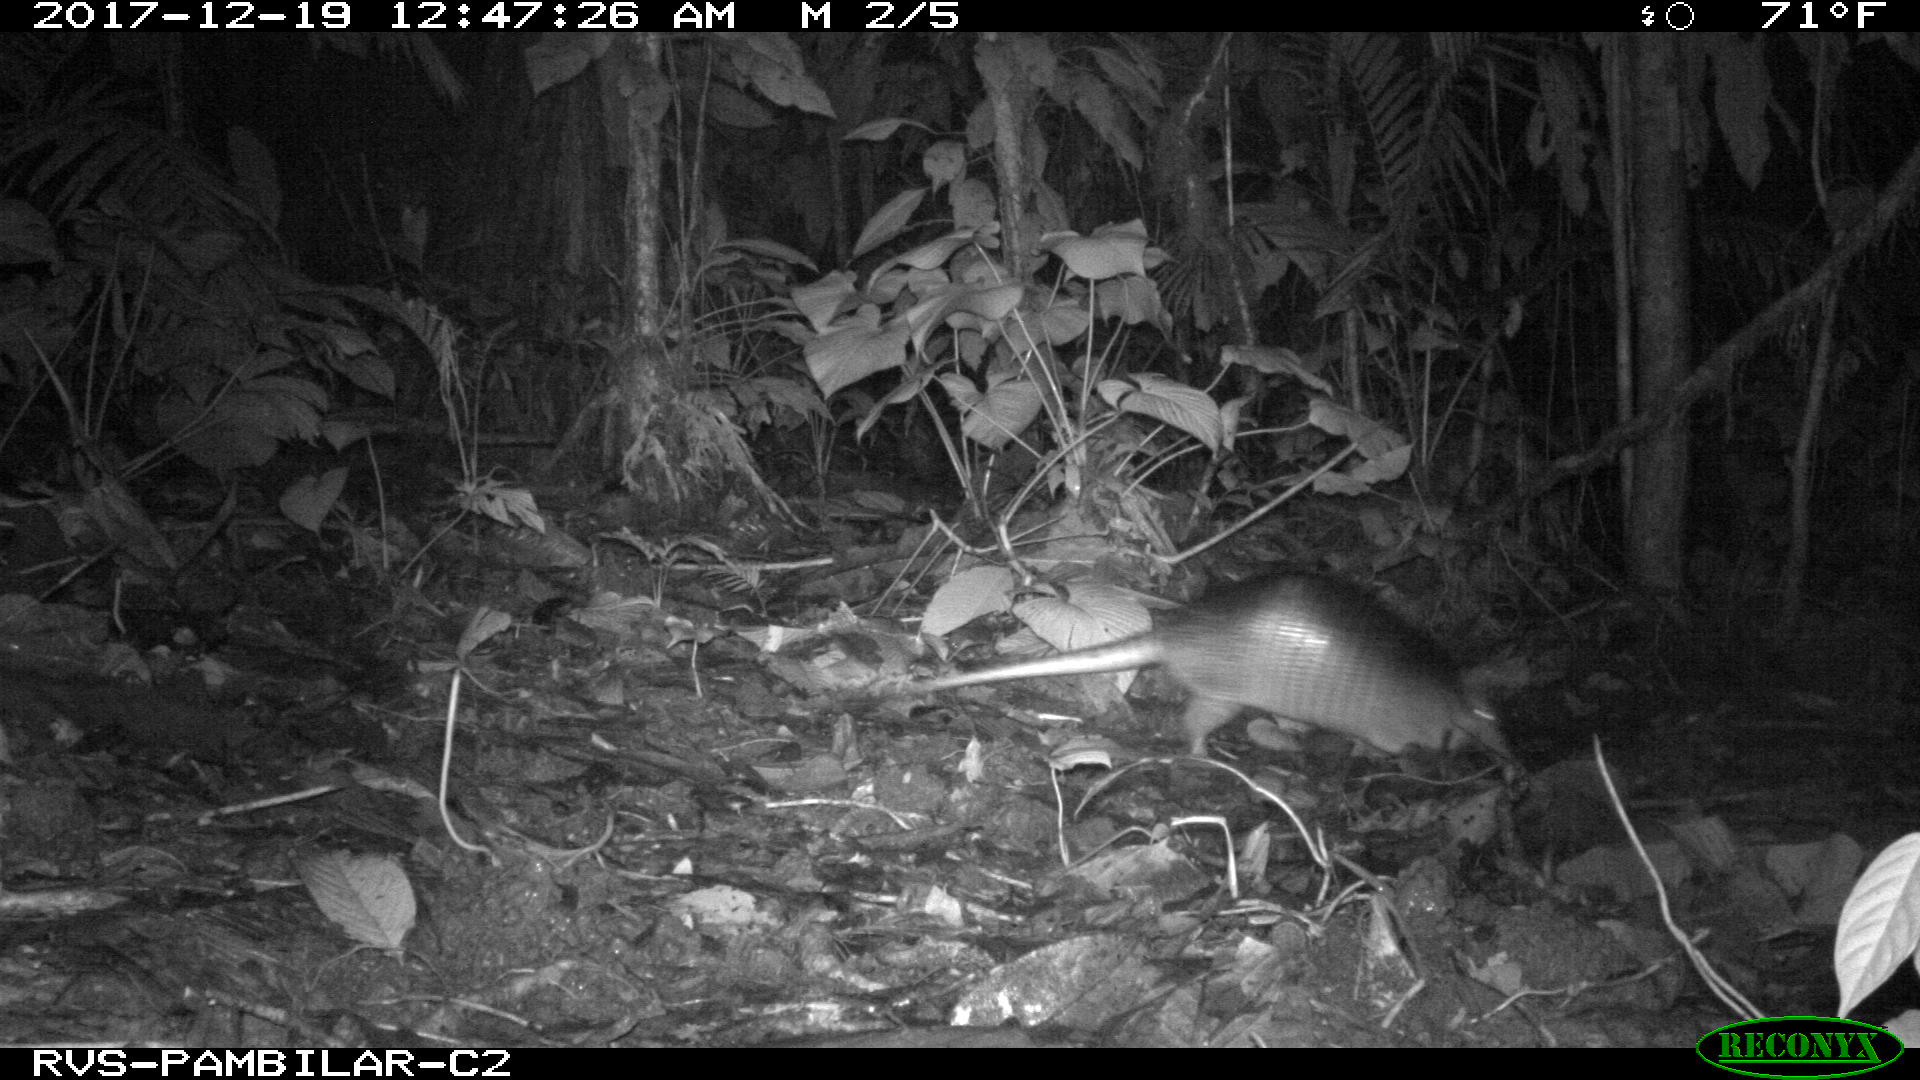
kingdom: Animalia
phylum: Chordata
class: Mammalia
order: Cingulata
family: Dasypodidae
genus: Dasypus
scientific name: Dasypus novemcinctus
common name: Nine-banded armadillo
